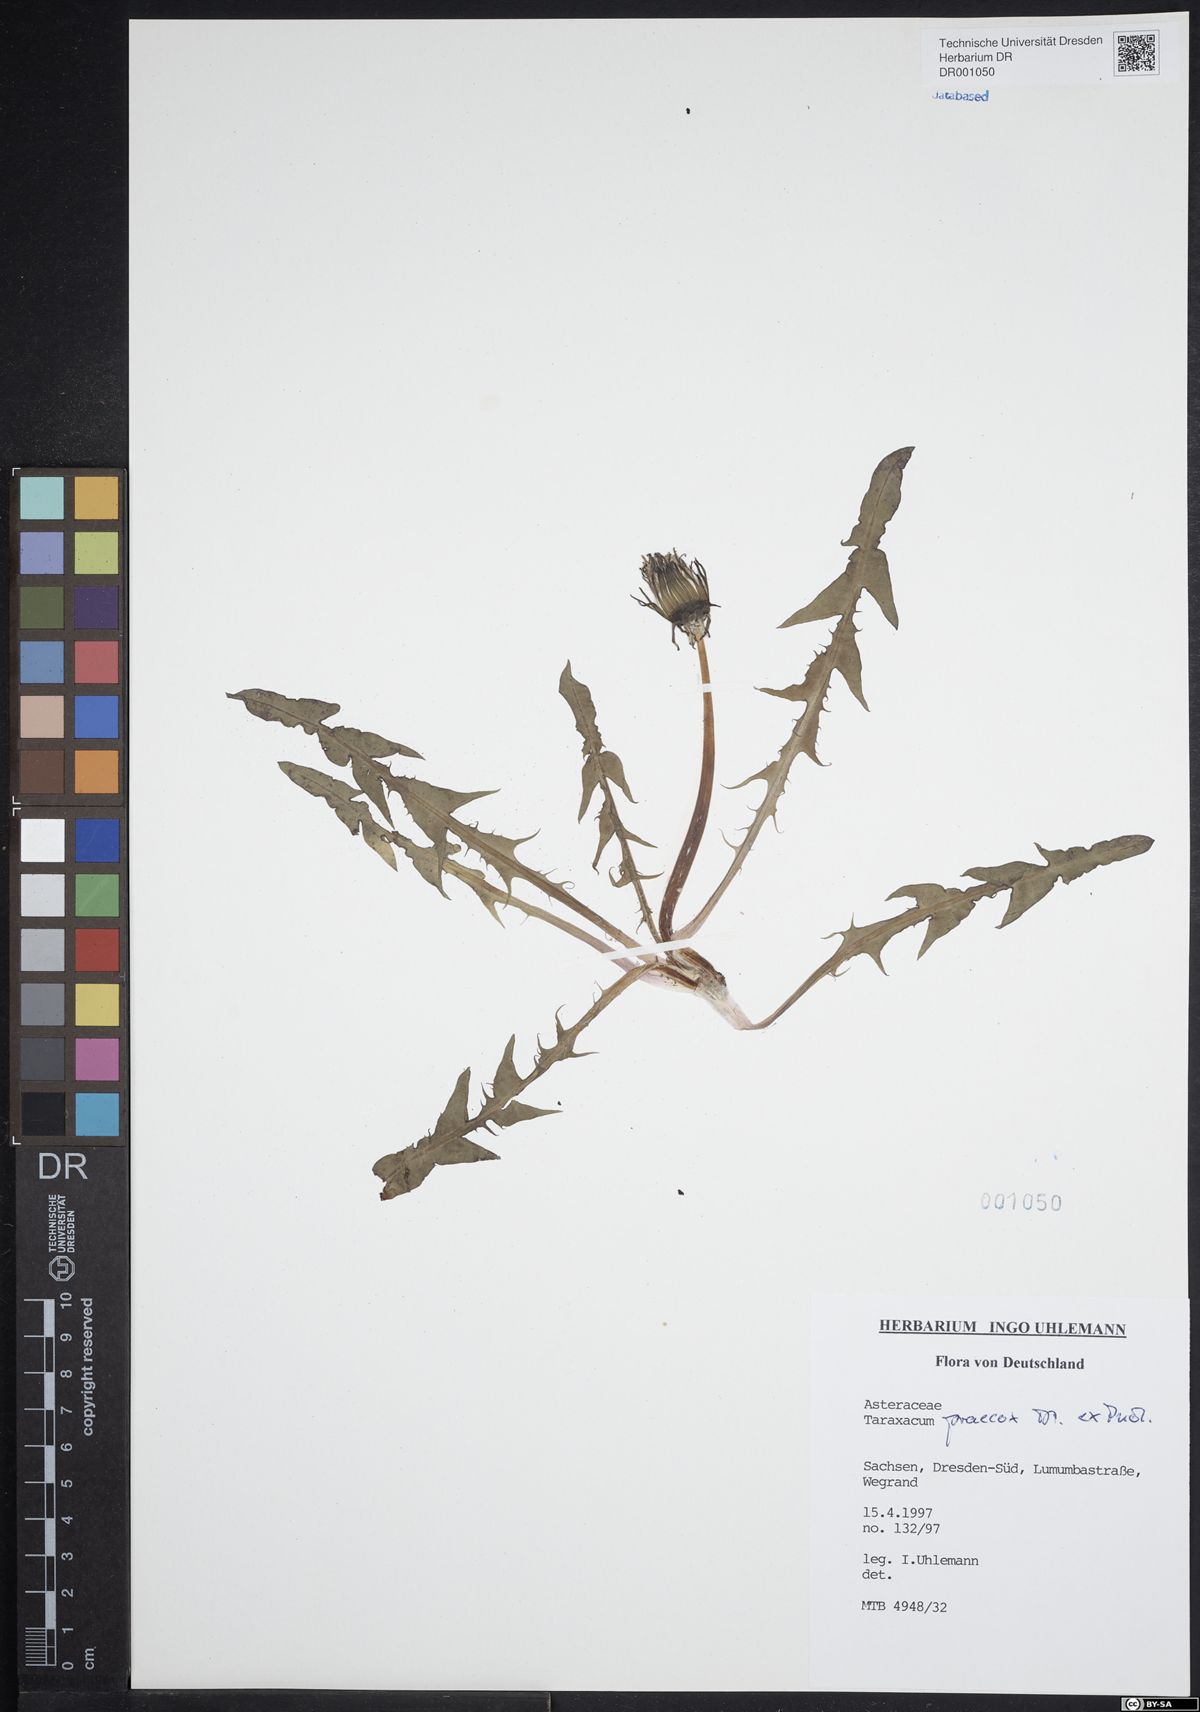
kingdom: Plantae
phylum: Tracheophyta
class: Magnoliopsida
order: Asterales
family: Asteraceae
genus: Taraxacum
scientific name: Taraxacum praecox
